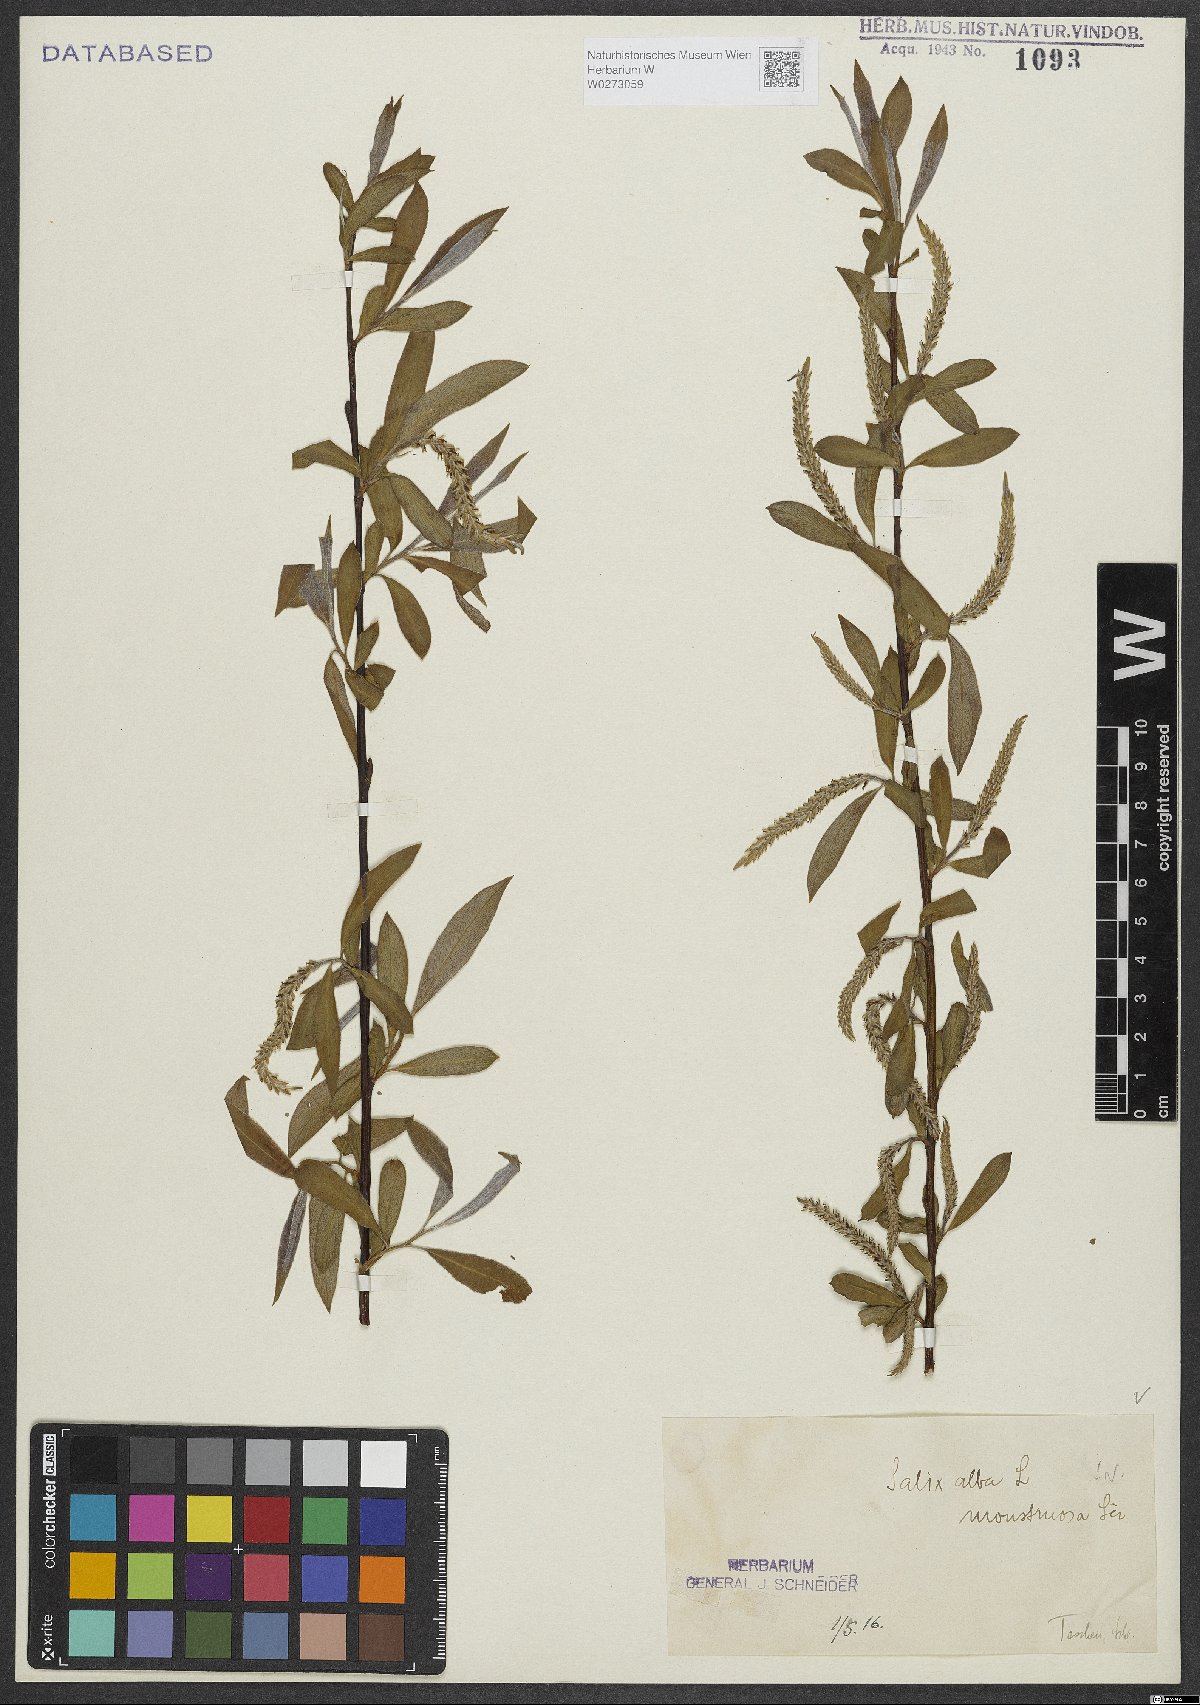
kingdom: Plantae
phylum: Tracheophyta
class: Magnoliopsida
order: Malpighiales
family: Salicaceae
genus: Salix
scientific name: Salix alba
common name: White willow
